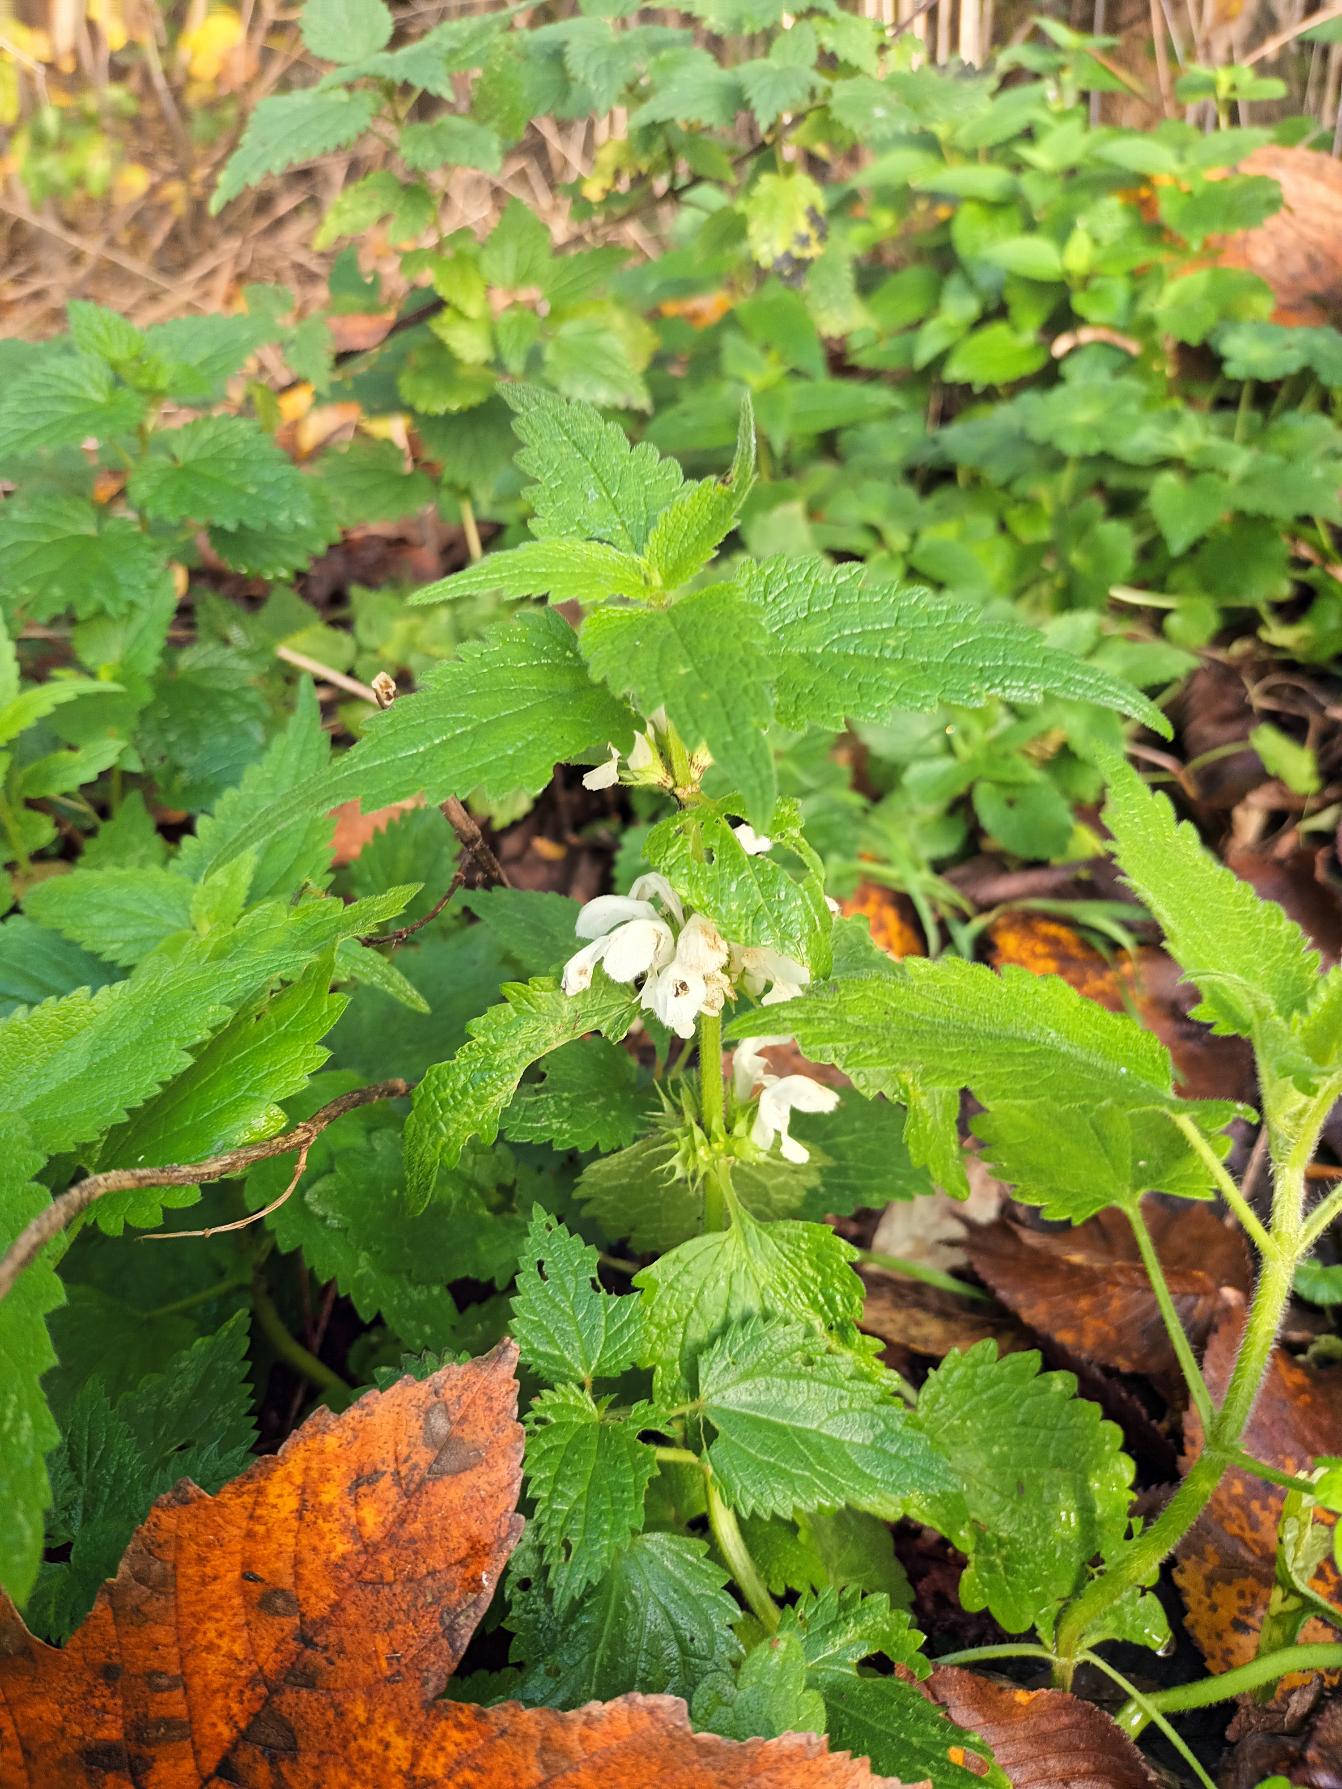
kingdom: Plantae
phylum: Tracheophyta
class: Magnoliopsida
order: Lamiales
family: Lamiaceae
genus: Lamium
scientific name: Lamium album
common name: Døvnælde
